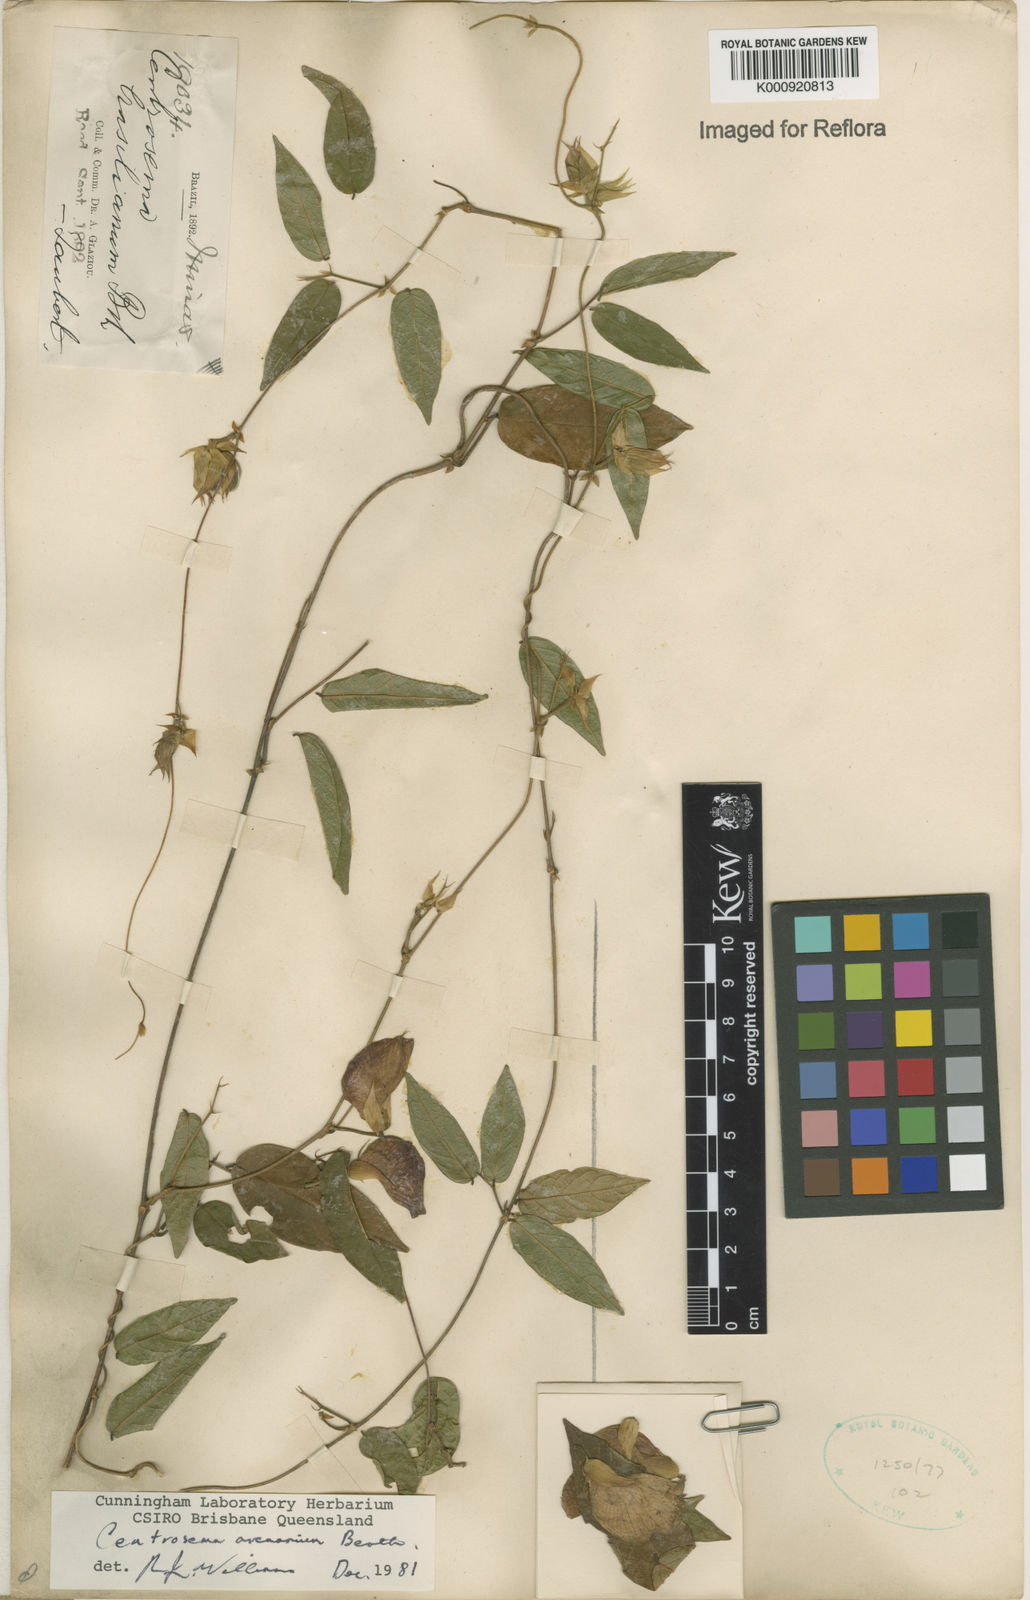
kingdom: Plantae
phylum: Tracheophyta
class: Magnoliopsida
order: Fabales
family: Fabaceae
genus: Centrosema
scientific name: Centrosema arenarium
